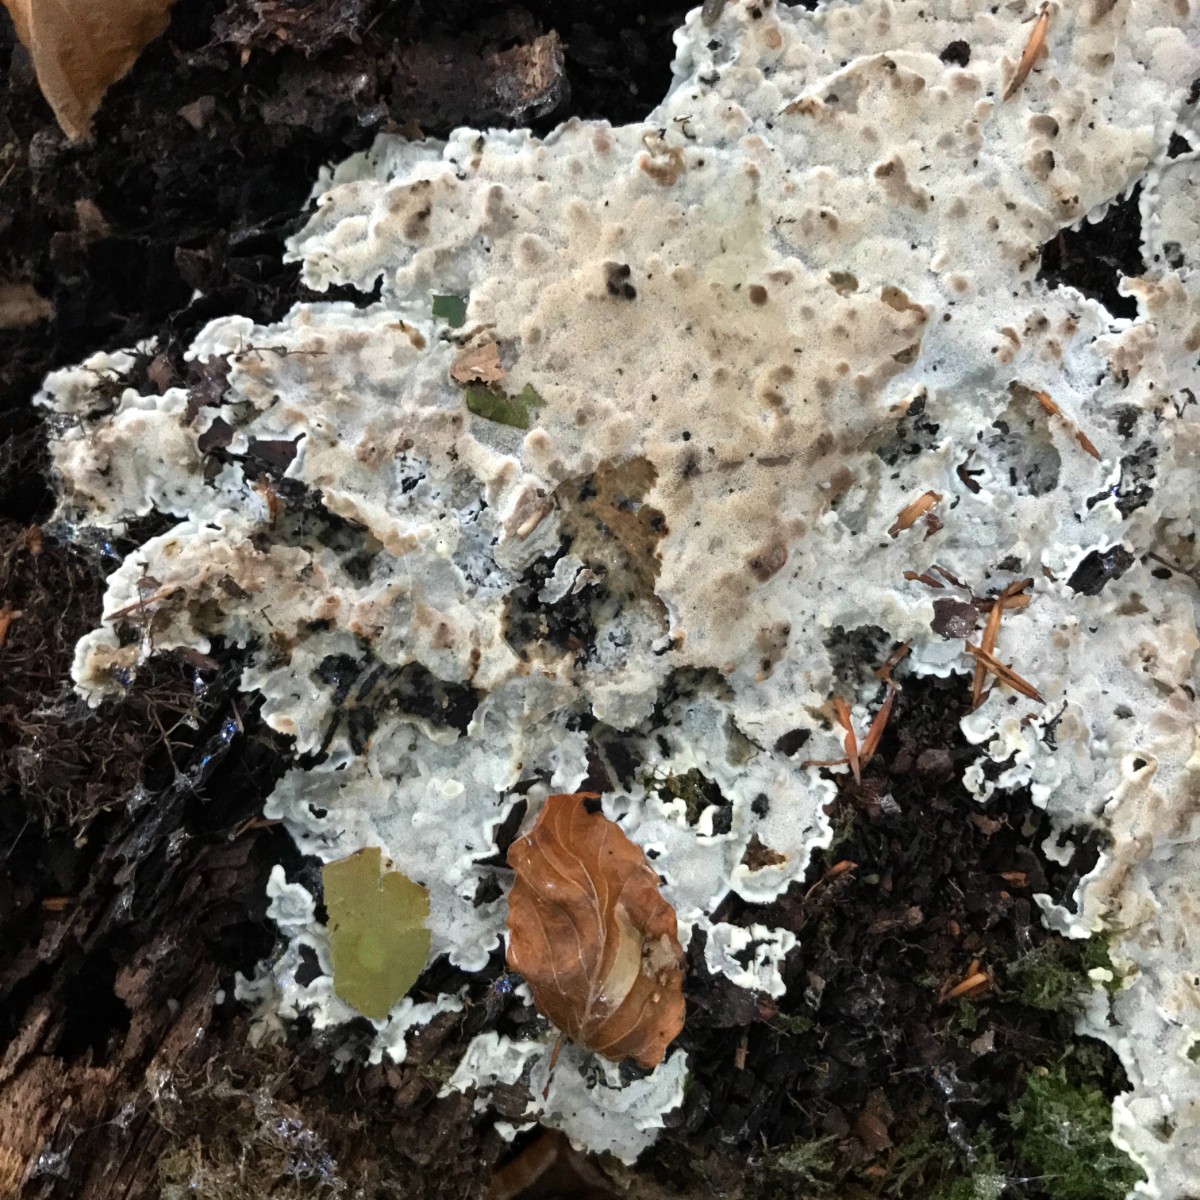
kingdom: Fungi
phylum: Basidiomycota
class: Agaricomycetes
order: Polyporales
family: Meruliaceae
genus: Physisporinus
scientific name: Physisporinus vitreus
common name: mastesvamp
